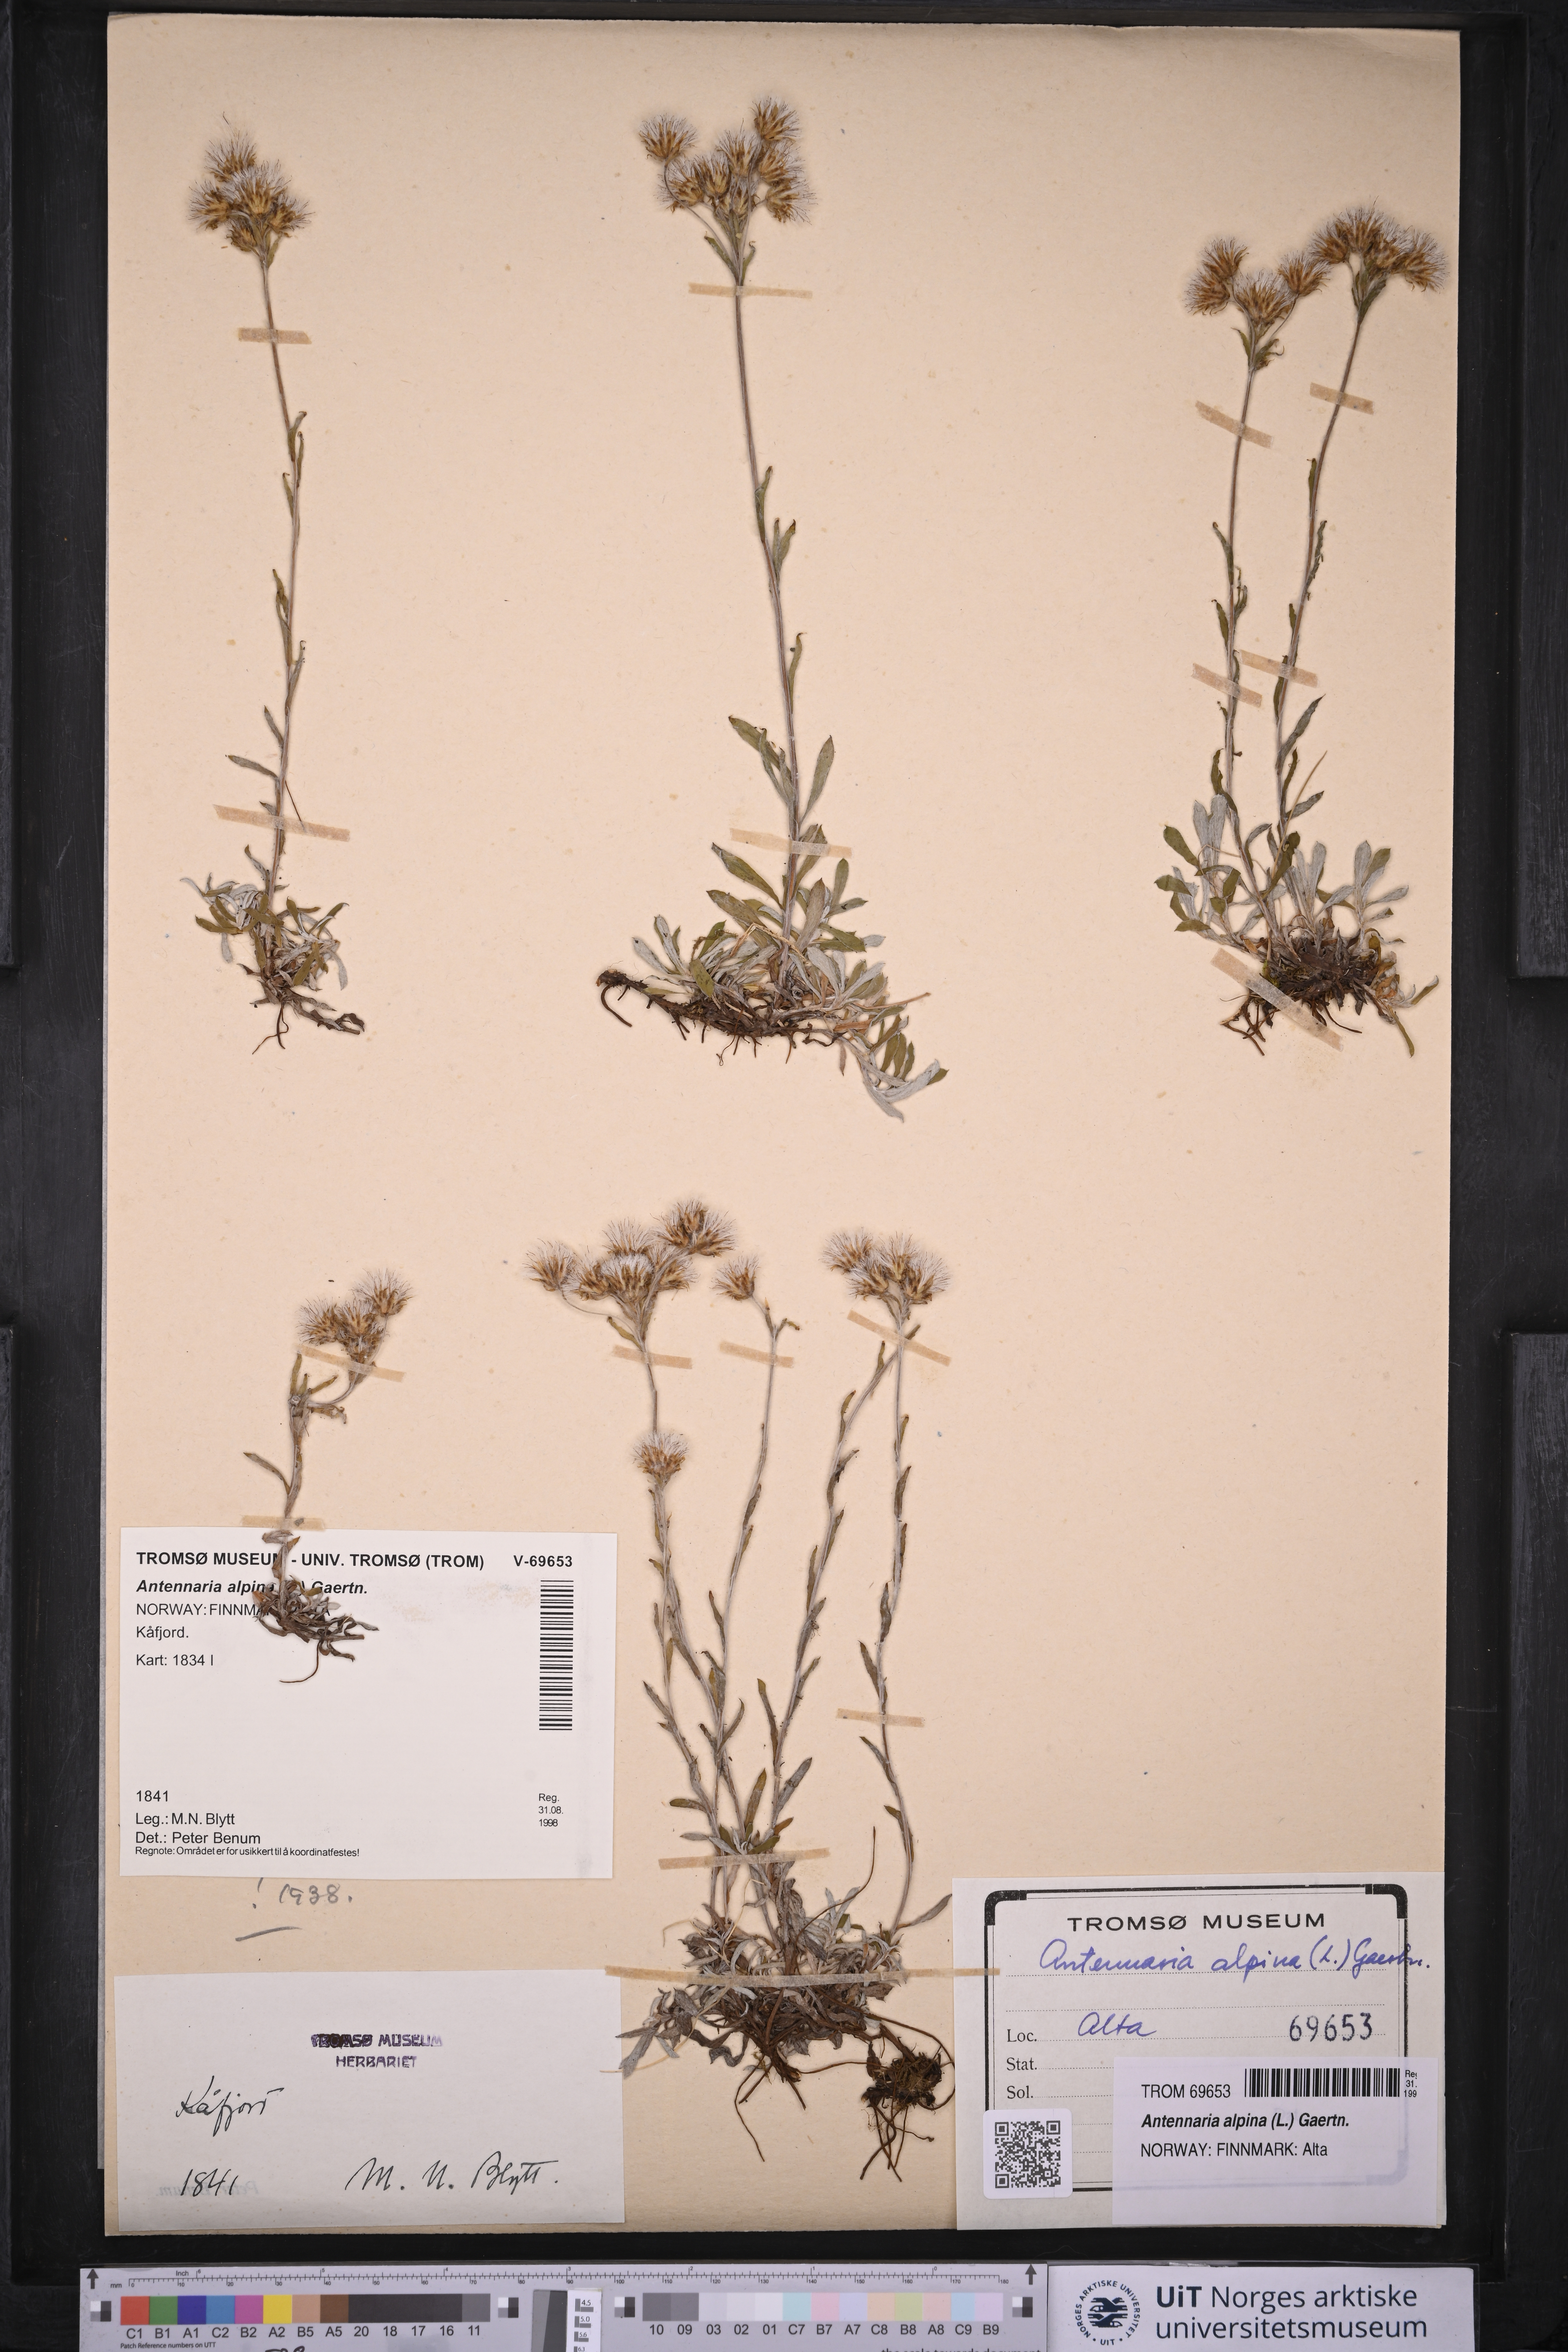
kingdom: Plantae
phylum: Tracheophyta
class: Magnoliopsida
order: Asterales
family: Asteraceae
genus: Antennaria
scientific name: Antennaria alpina
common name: Alpine pussytoes
